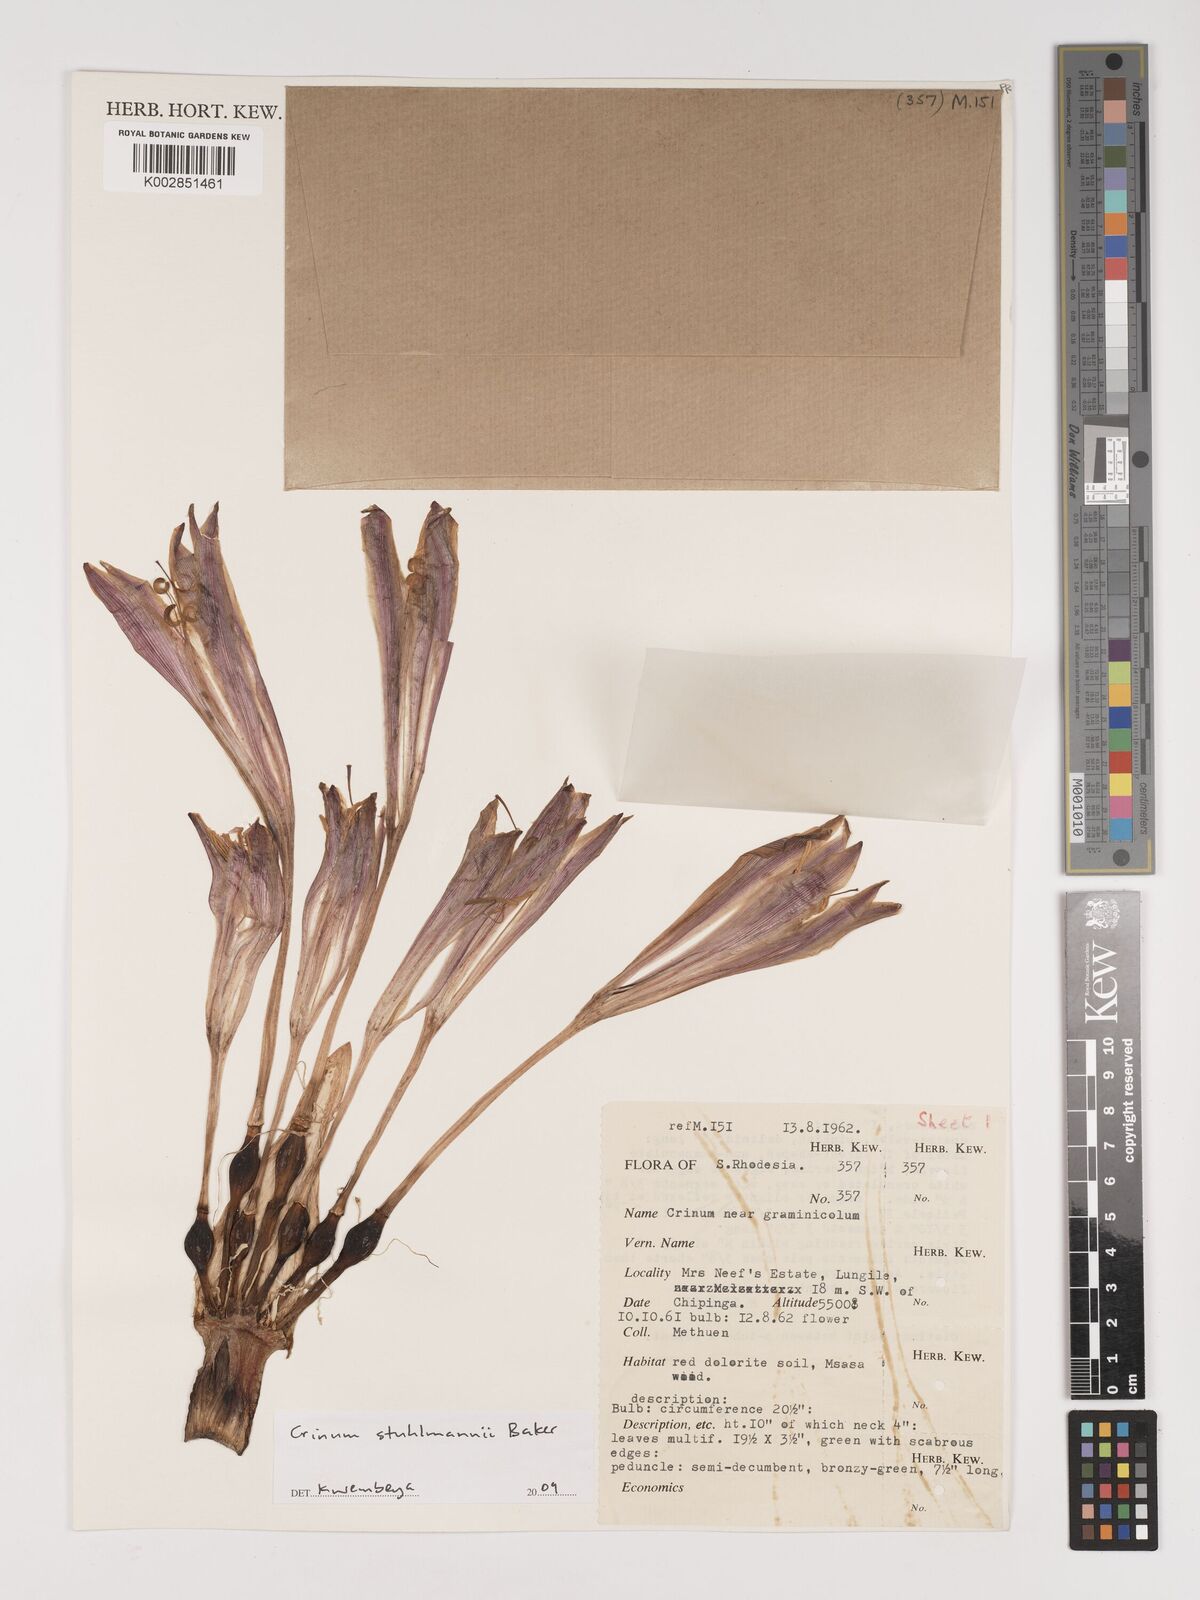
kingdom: Plantae
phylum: Tracheophyta
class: Liliopsida
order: Asparagales
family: Amaryllidaceae
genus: Crinum
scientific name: Crinum stuhlmannii
